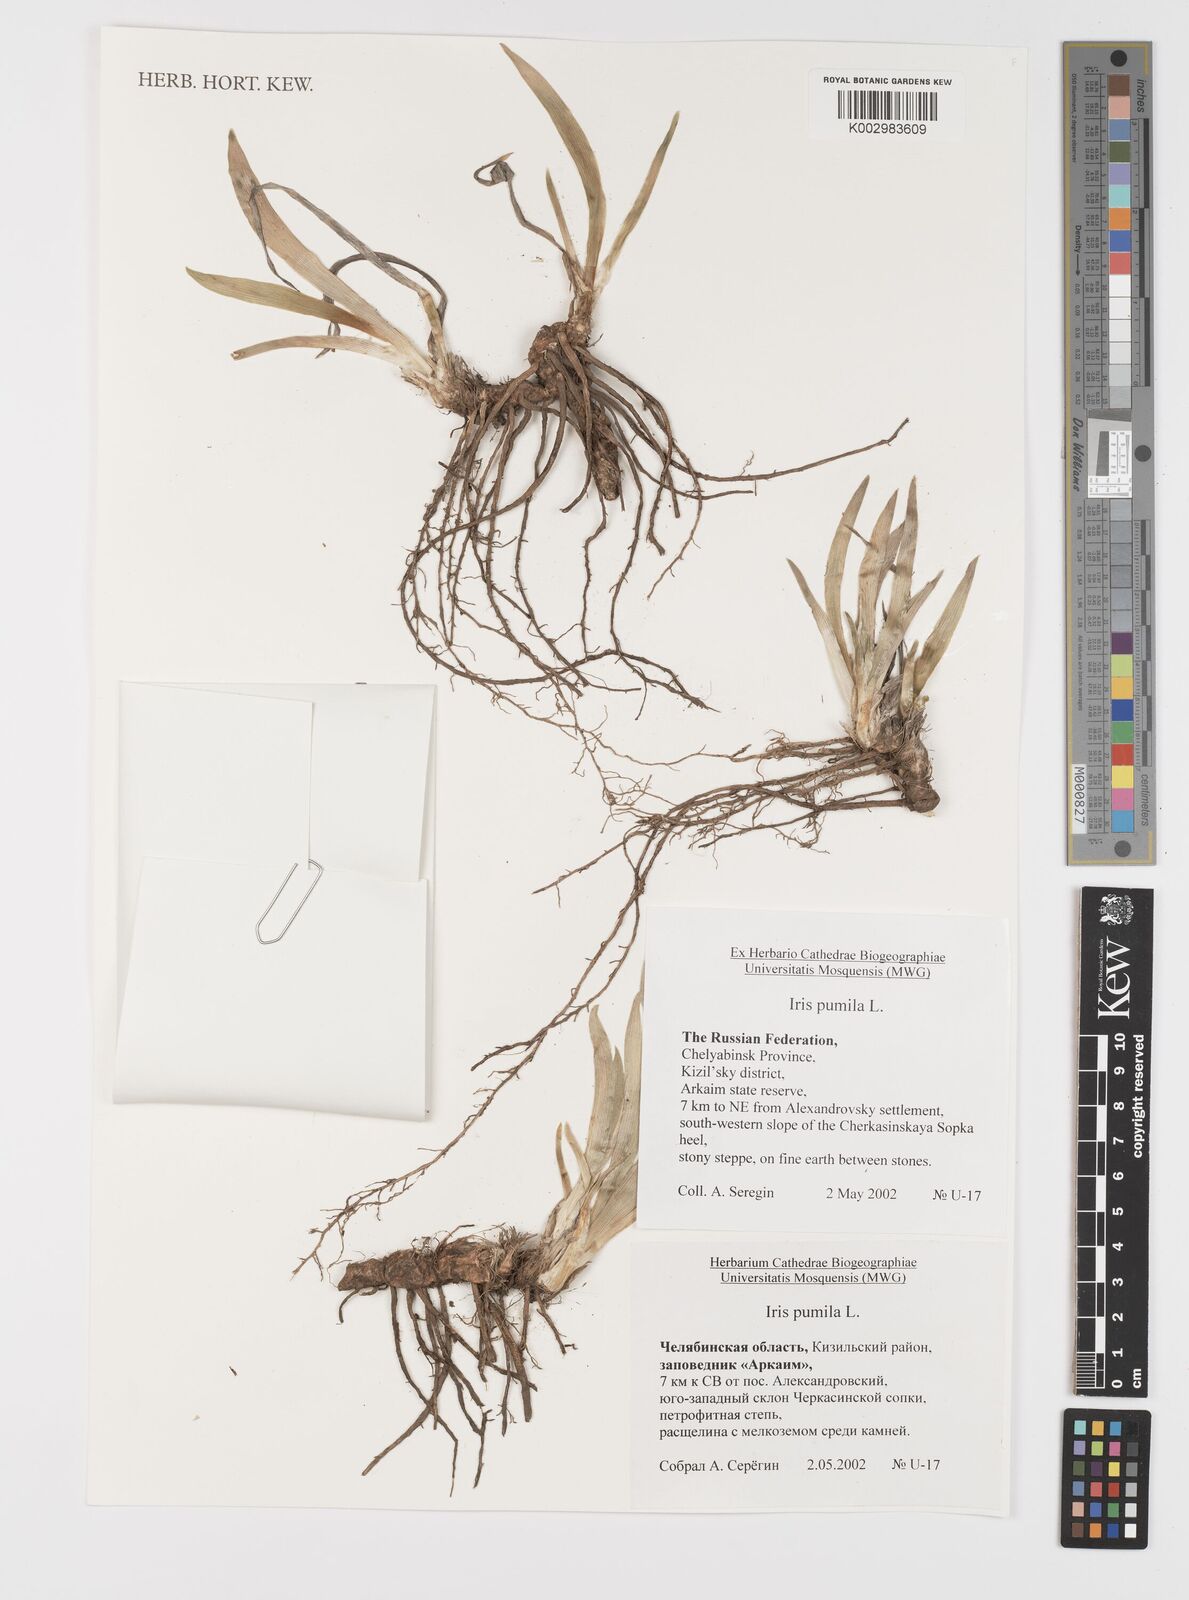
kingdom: Plantae
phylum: Tracheophyta
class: Liliopsida
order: Asparagales
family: Iridaceae
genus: Iris
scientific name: Iris pumila
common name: Dwarf iris
